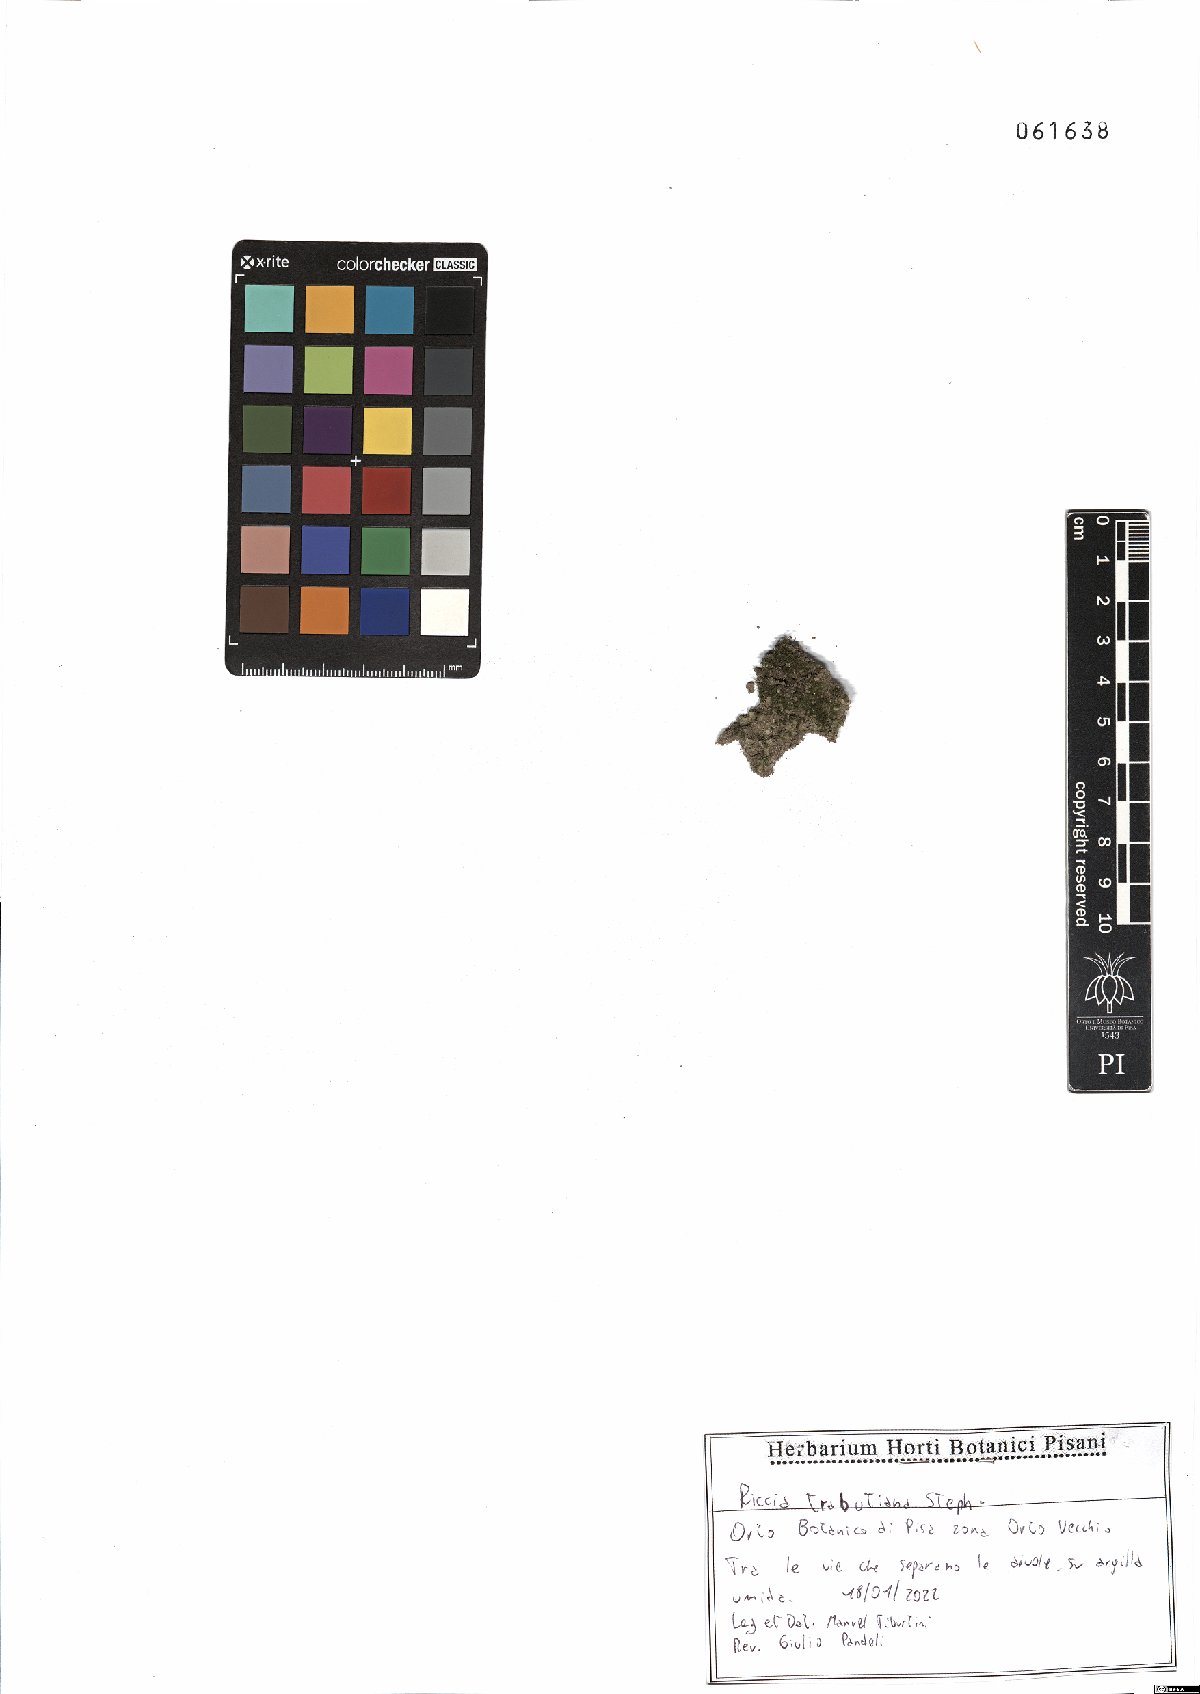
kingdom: Plantae
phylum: Marchantiophyta
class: Marchantiopsida
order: Marchantiales
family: Ricciaceae
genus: Riccia
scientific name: Riccia ciliifera
